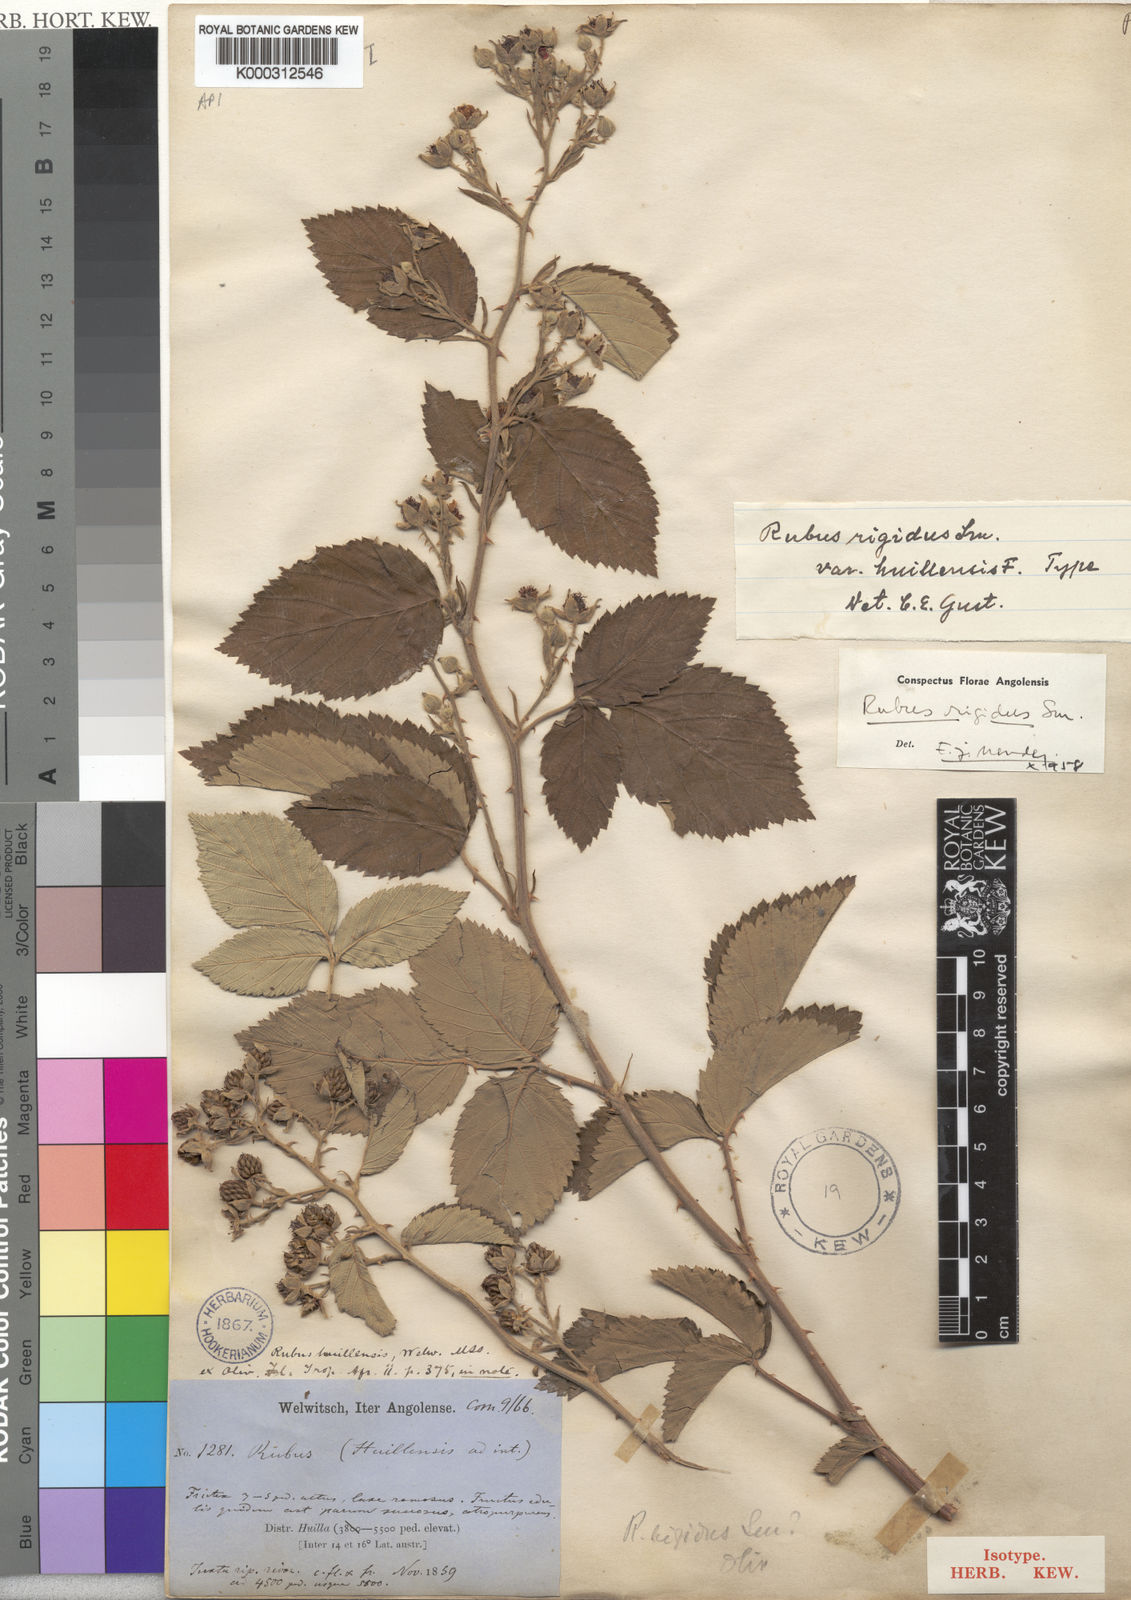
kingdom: Plantae
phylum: Tracheophyta
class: Magnoliopsida
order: Rosales
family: Rosaceae
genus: Rubus
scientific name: Rubus
